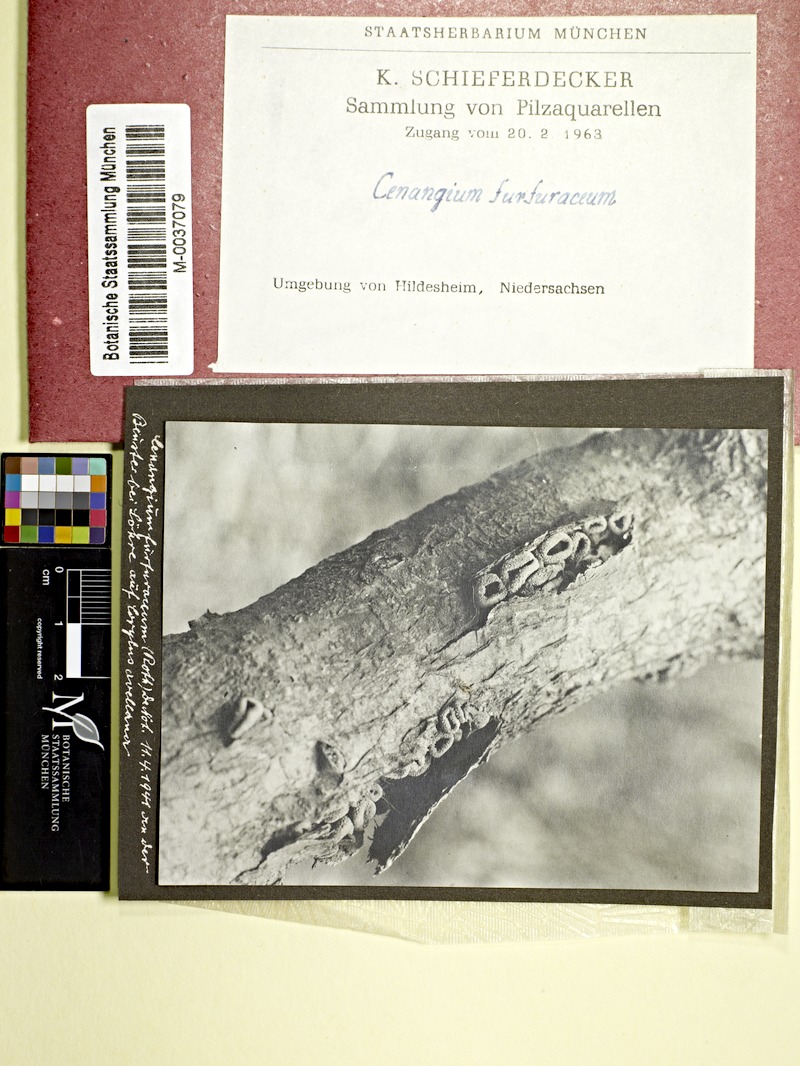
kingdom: Fungi
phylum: Ascomycota
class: Leotiomycetes
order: Helotiales
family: Cenangiaceae
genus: Encoelia
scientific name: Encoelia furfuracea
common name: Spring hazelcup
